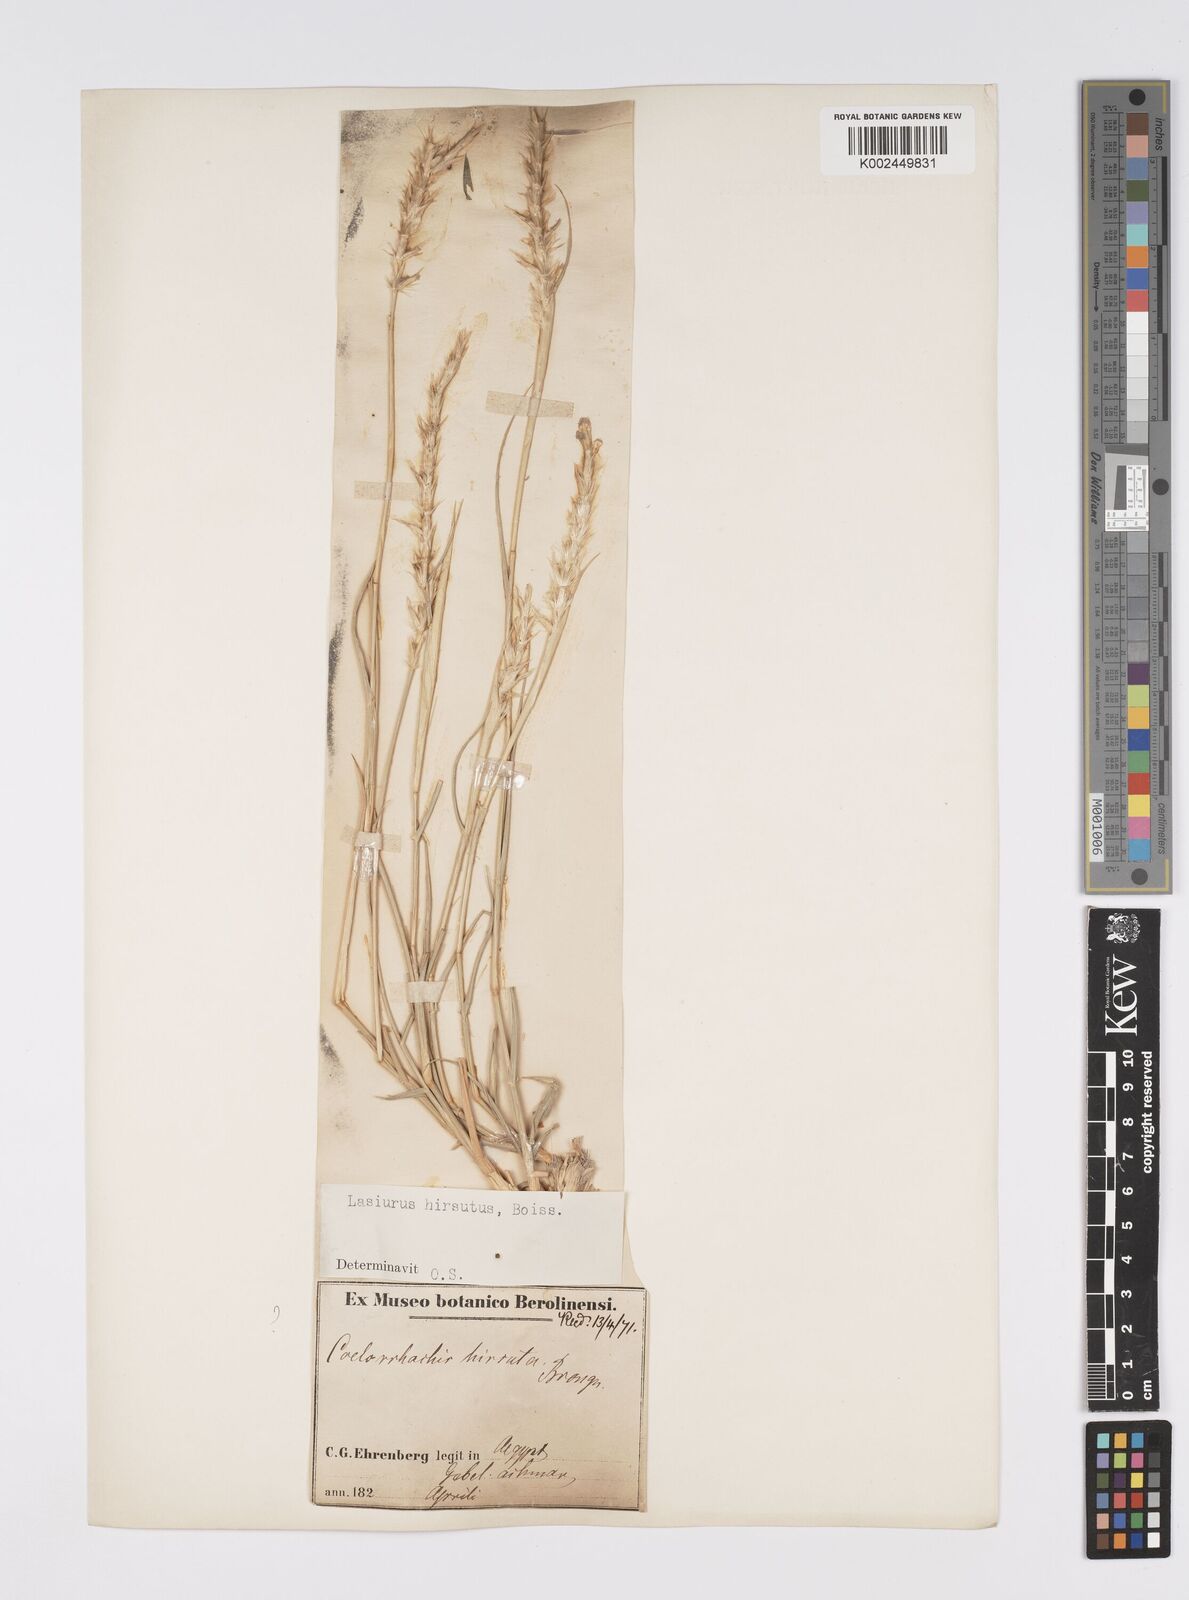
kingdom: Plantae
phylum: Tracheophyta
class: Liliopsida
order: Poales
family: Poaceae
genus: Lasiurus
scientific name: Lasiurus scindicus
